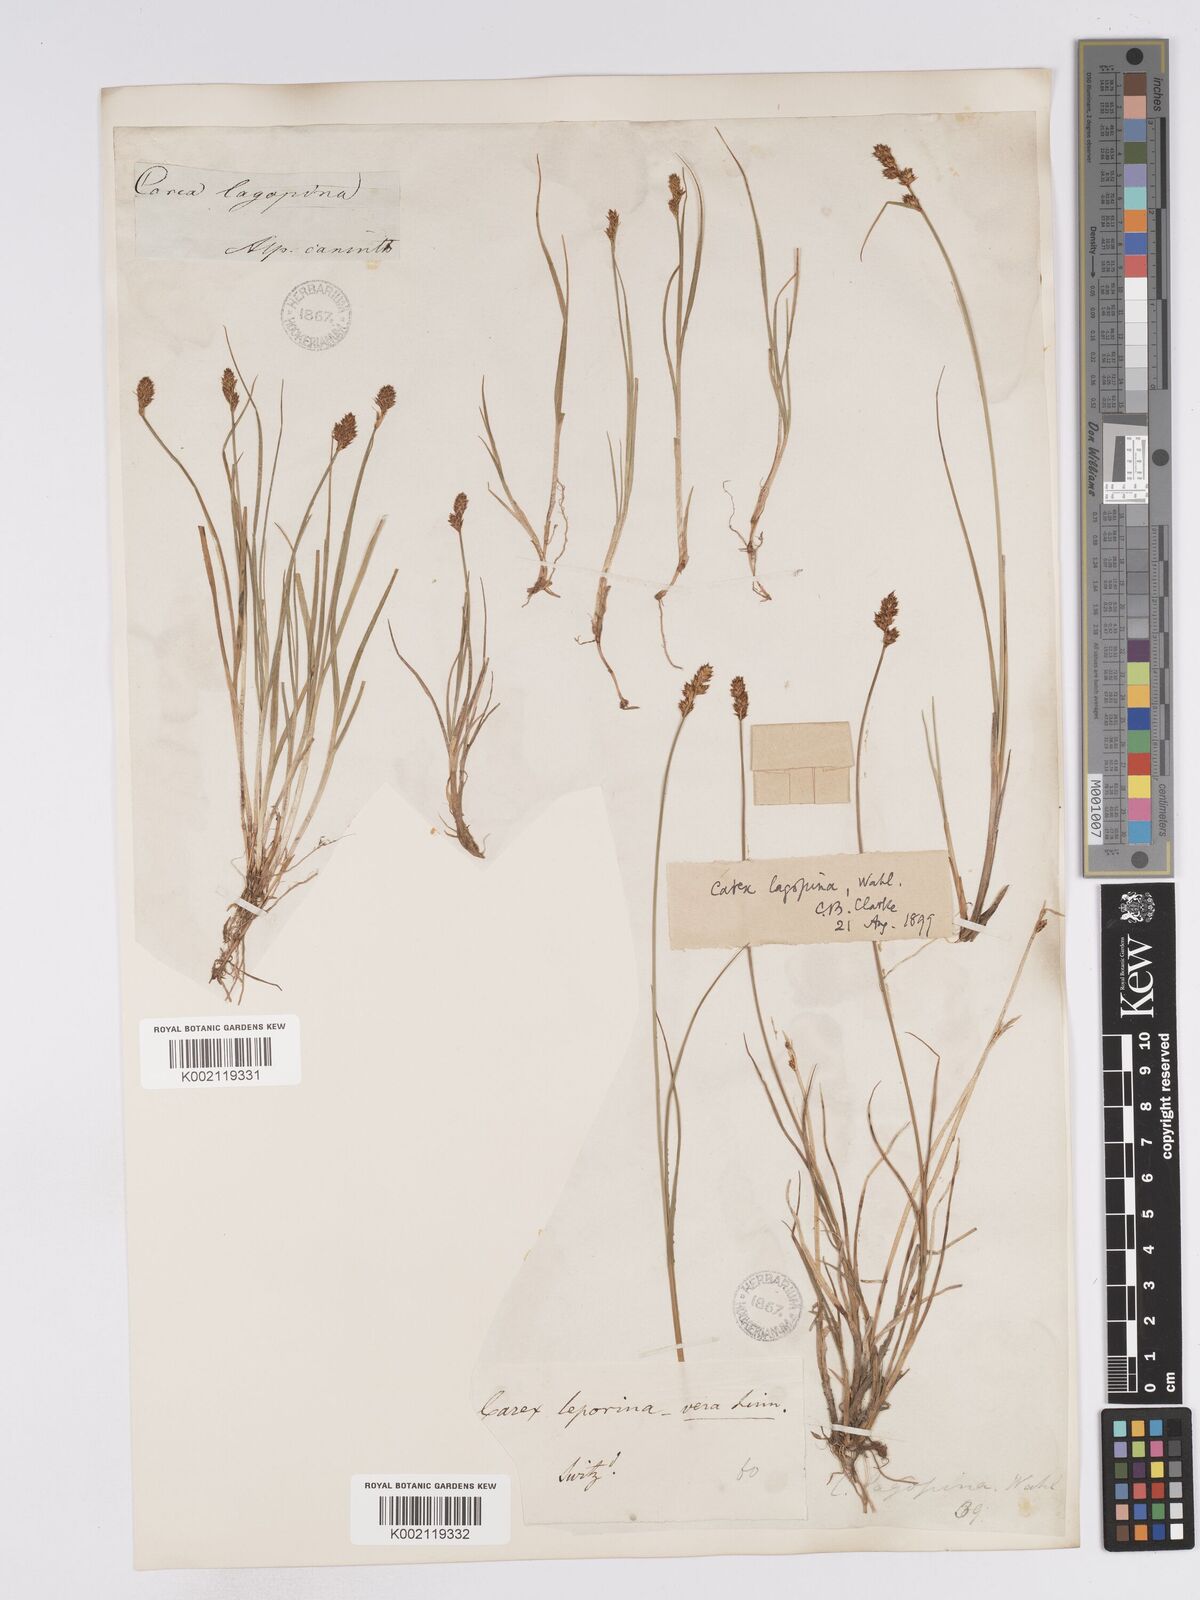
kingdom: Plantae
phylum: Tracheophyta
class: Liliopsida
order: Poales
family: Cyperaceae
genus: Carex
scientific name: Carex lachenalii
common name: Hare's-foot sedge
